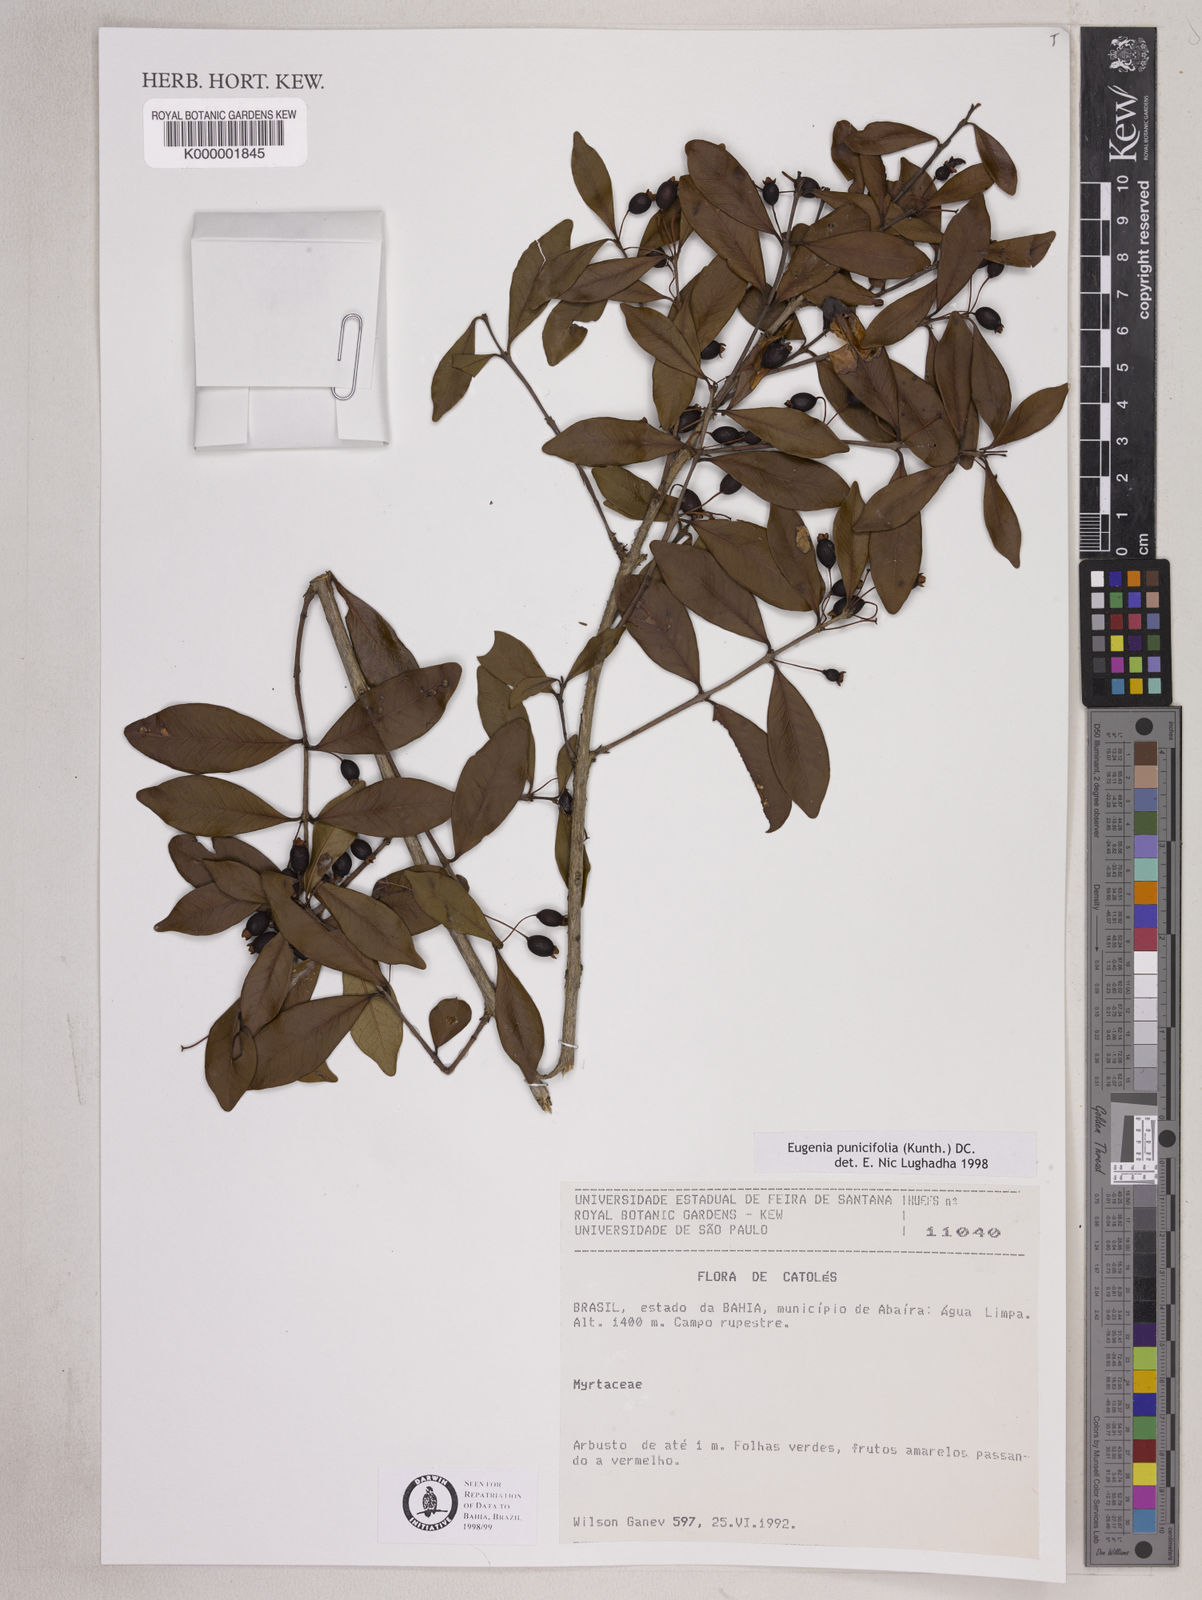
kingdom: Plantae
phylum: Tracheophyta
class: Magnoliopsida
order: Myrtales
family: Myrtaceae
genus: Eugenia
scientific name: Eugenia punicifolia
